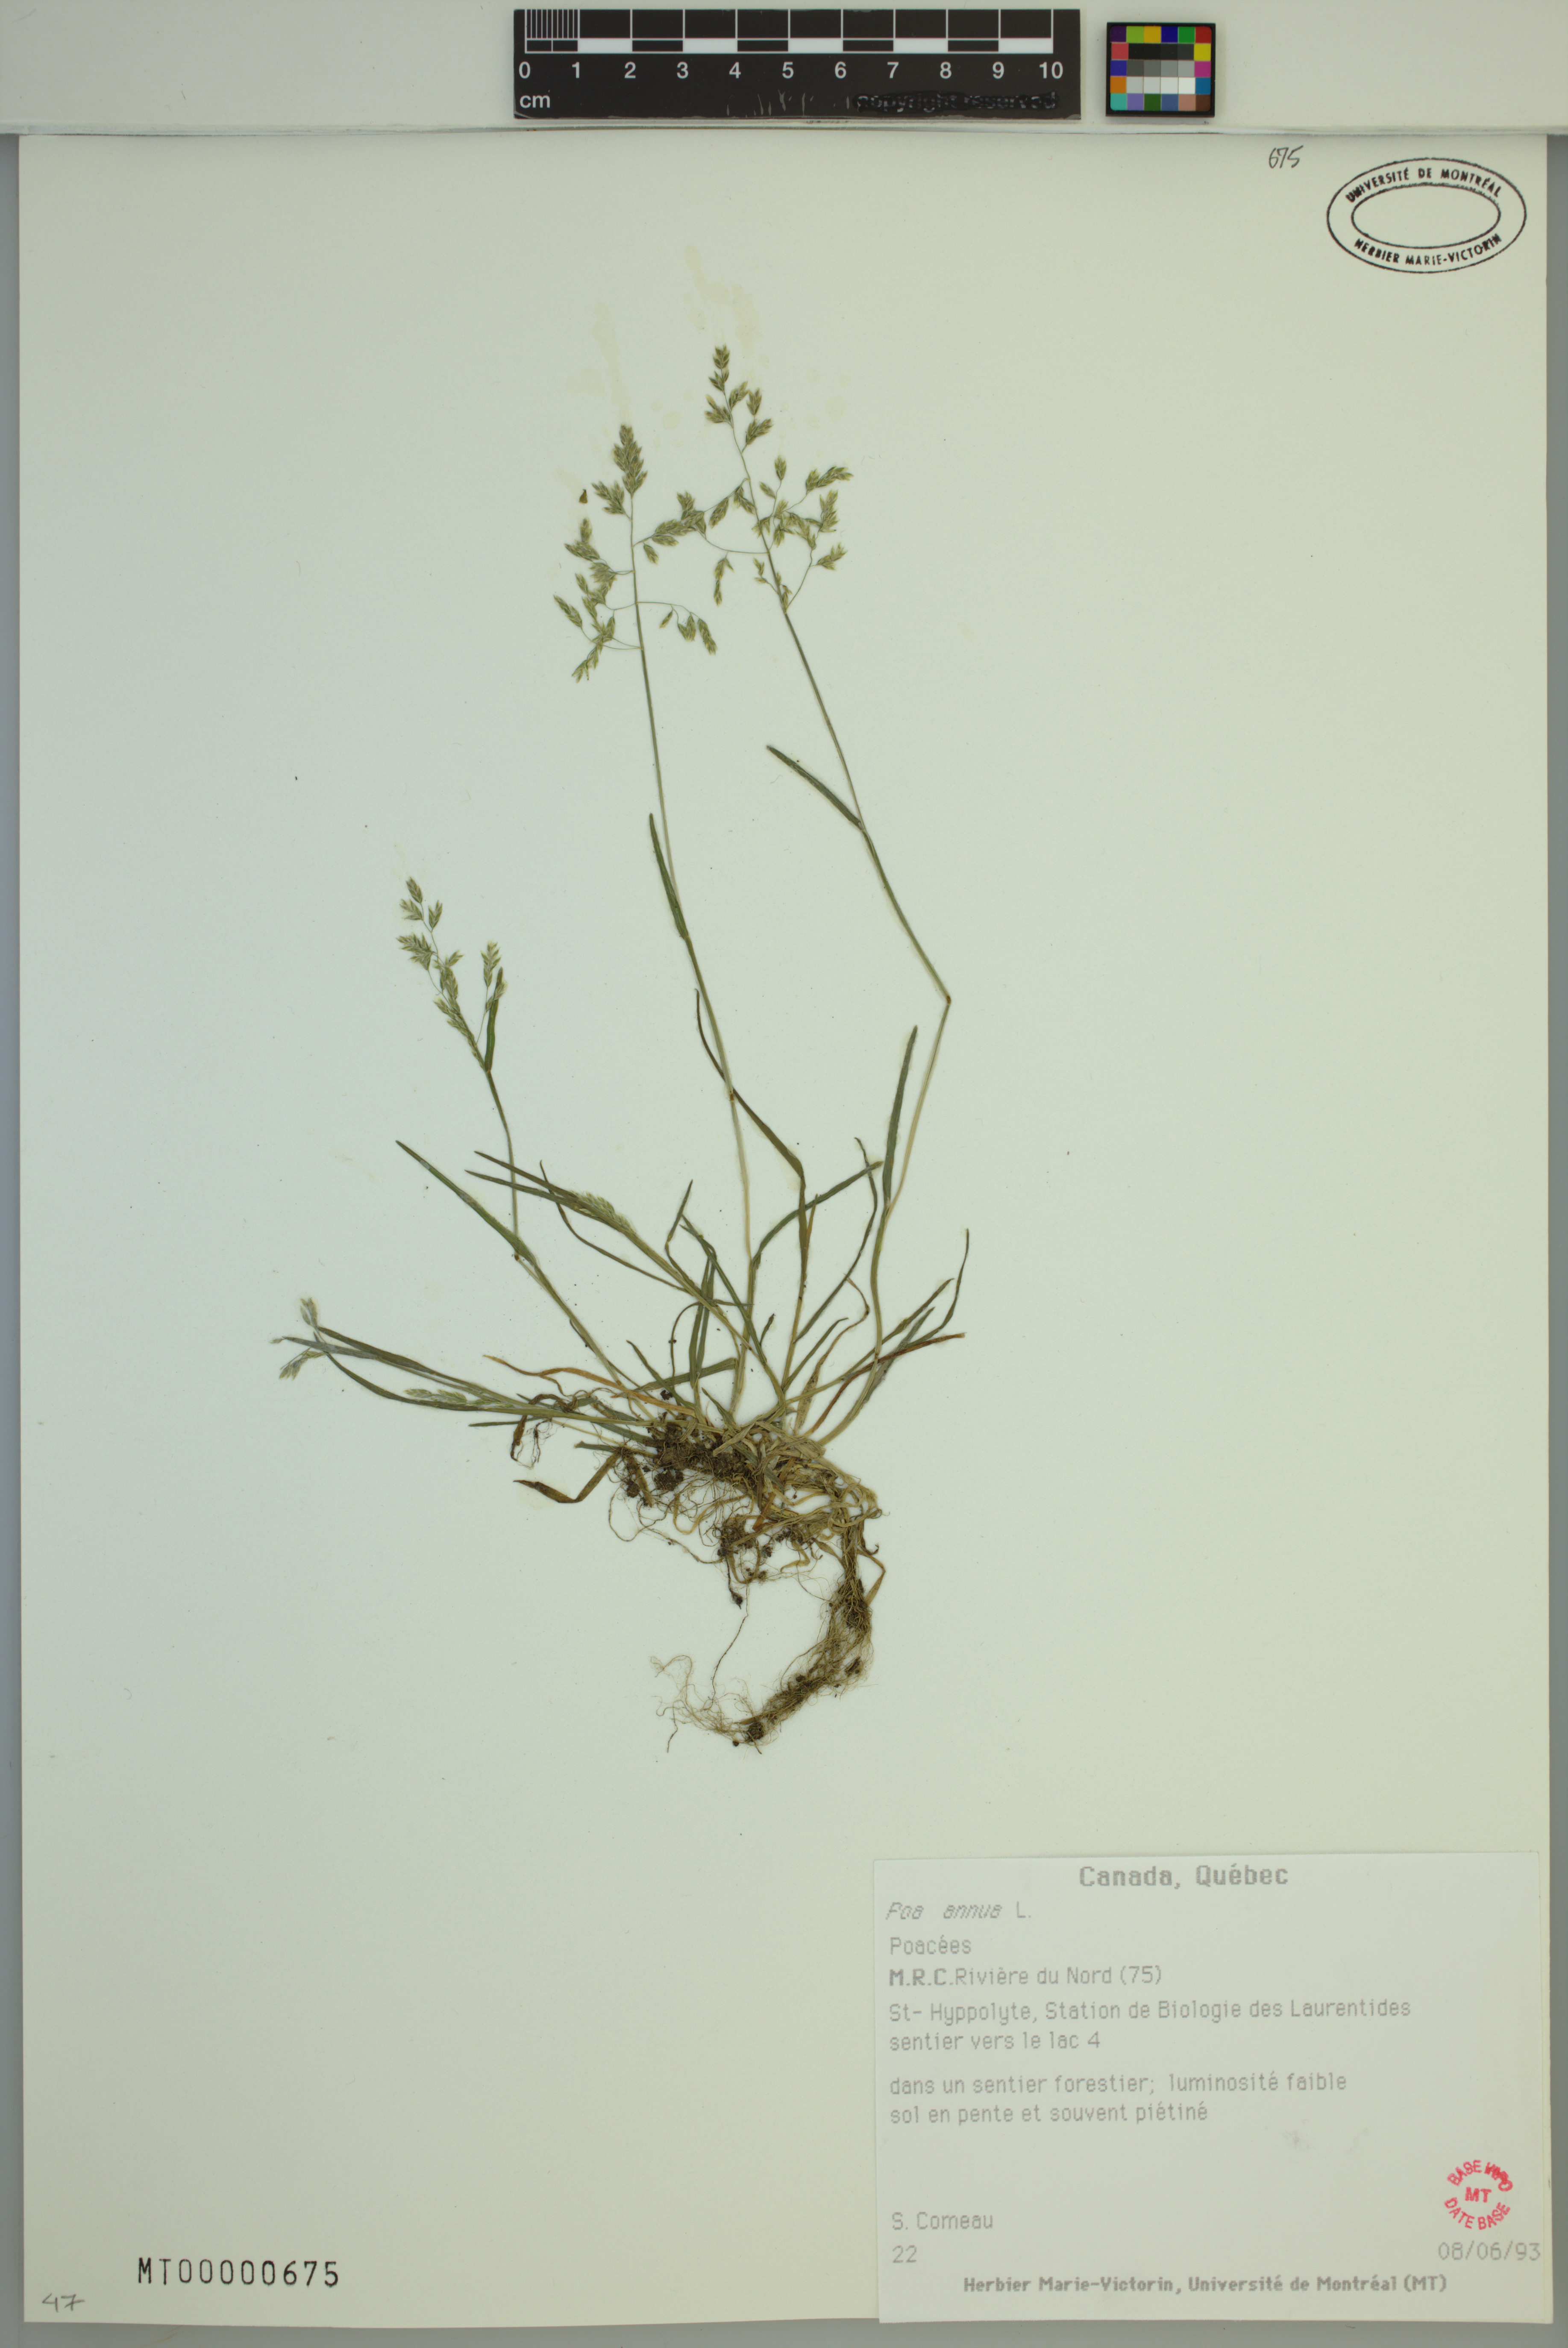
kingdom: Plantae
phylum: Tracheophyta
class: Liliopsida
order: Poales
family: Poaceae
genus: Poa
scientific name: Poa annua
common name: Annual bluegrass
